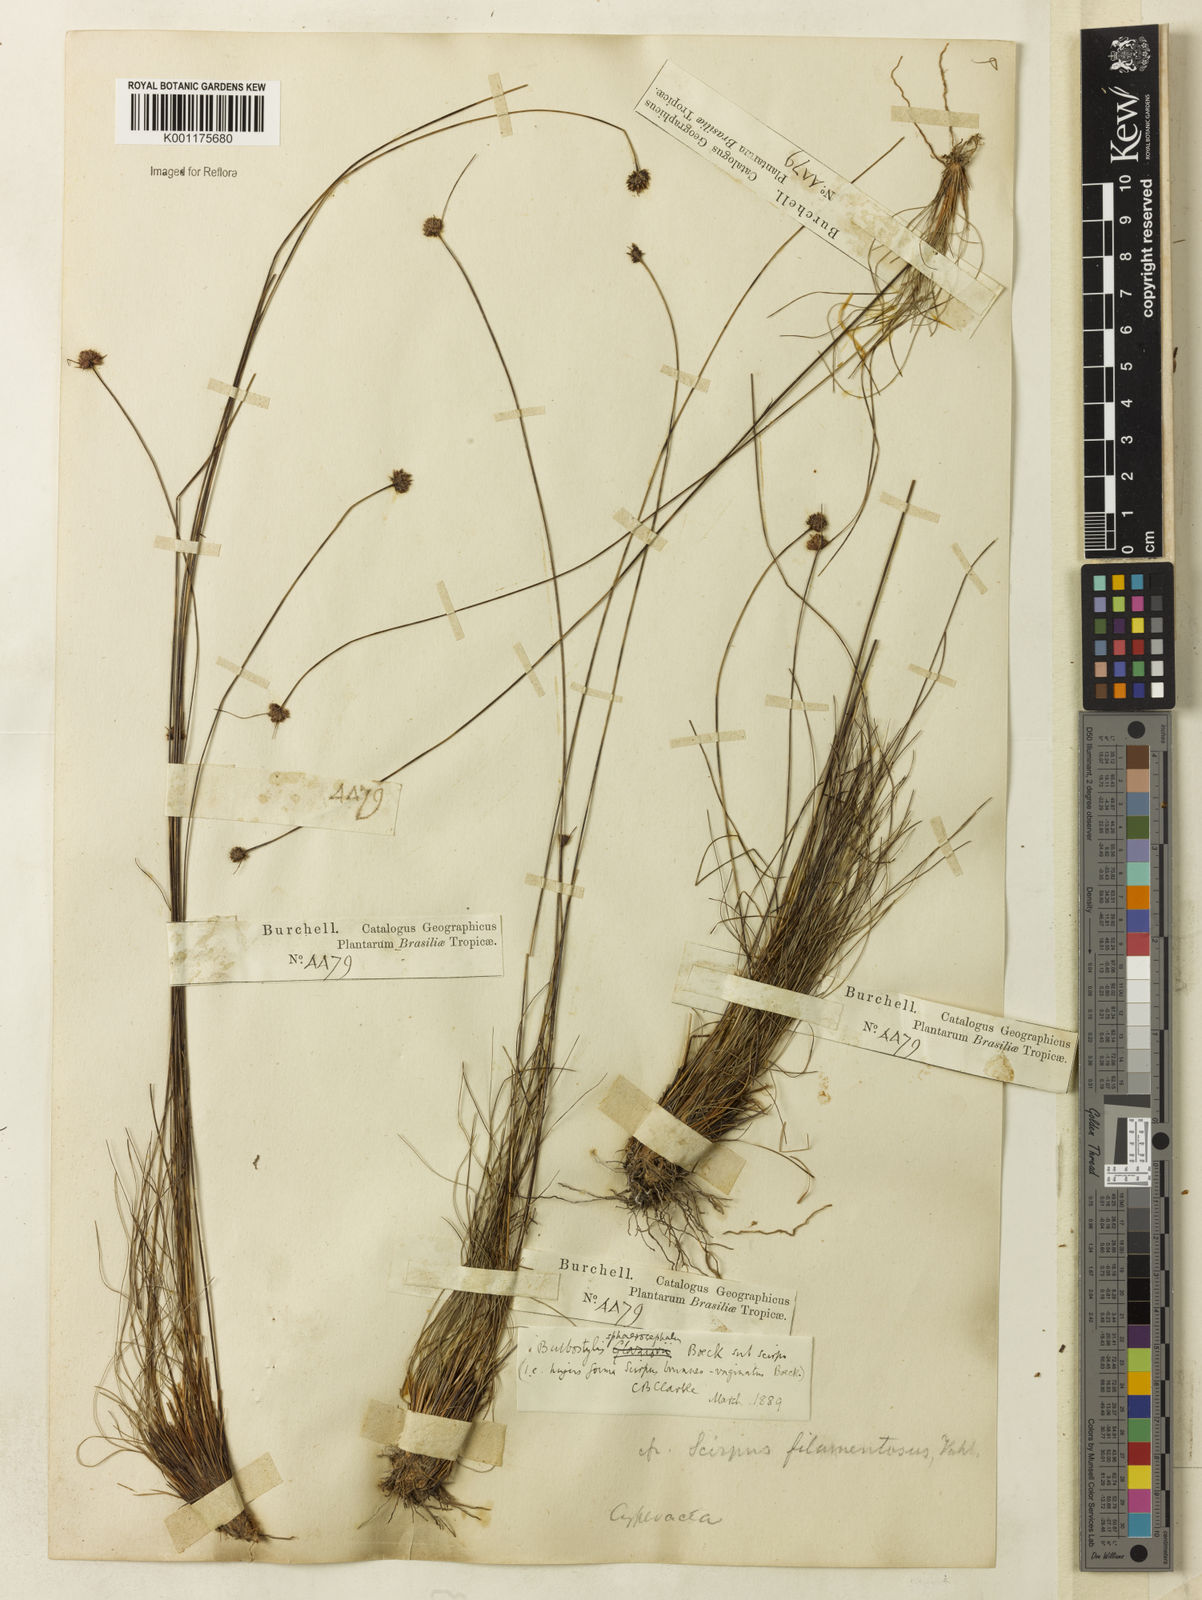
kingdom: Plantae
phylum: Tracheophyta
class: Liliopsida
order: Poales
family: Cyperaceae
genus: Bulbostylis
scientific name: Bulbostylis sphaerocephala
